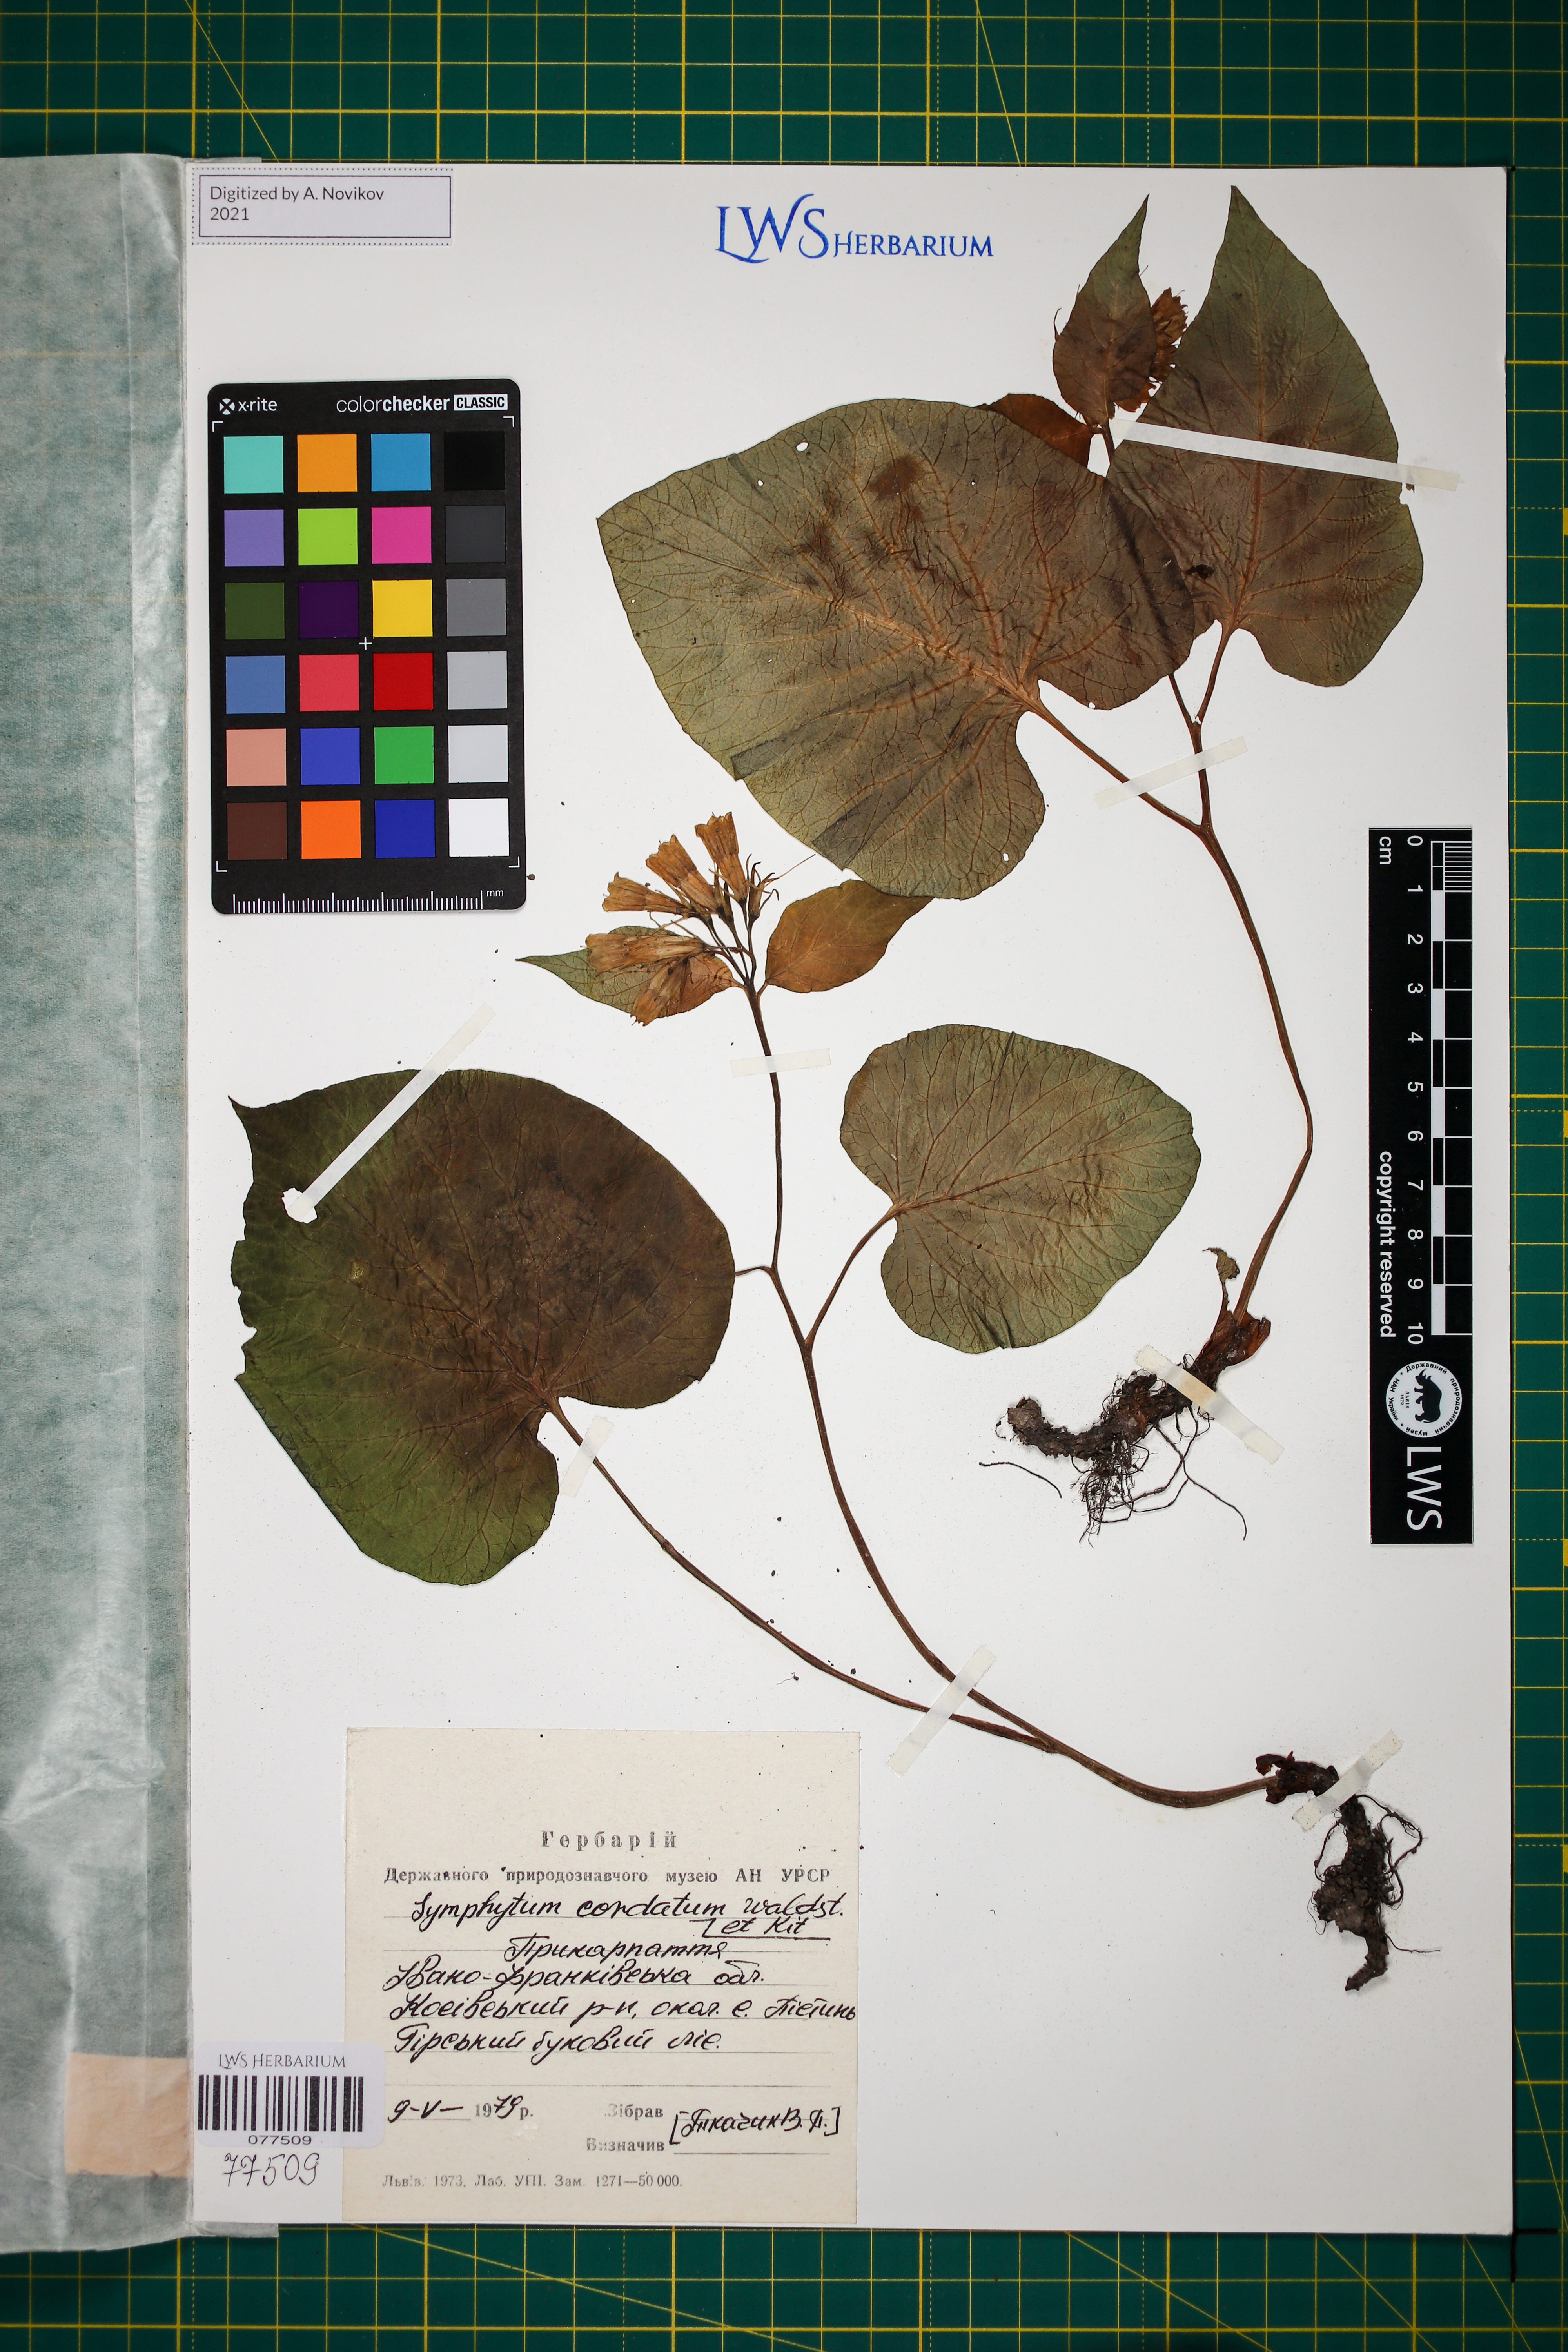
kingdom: Plantae
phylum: Tracheophyta
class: Magnoliopsida
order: Boraginales
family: Boraginaceae
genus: Symphytum
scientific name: Symphytum cordatum
